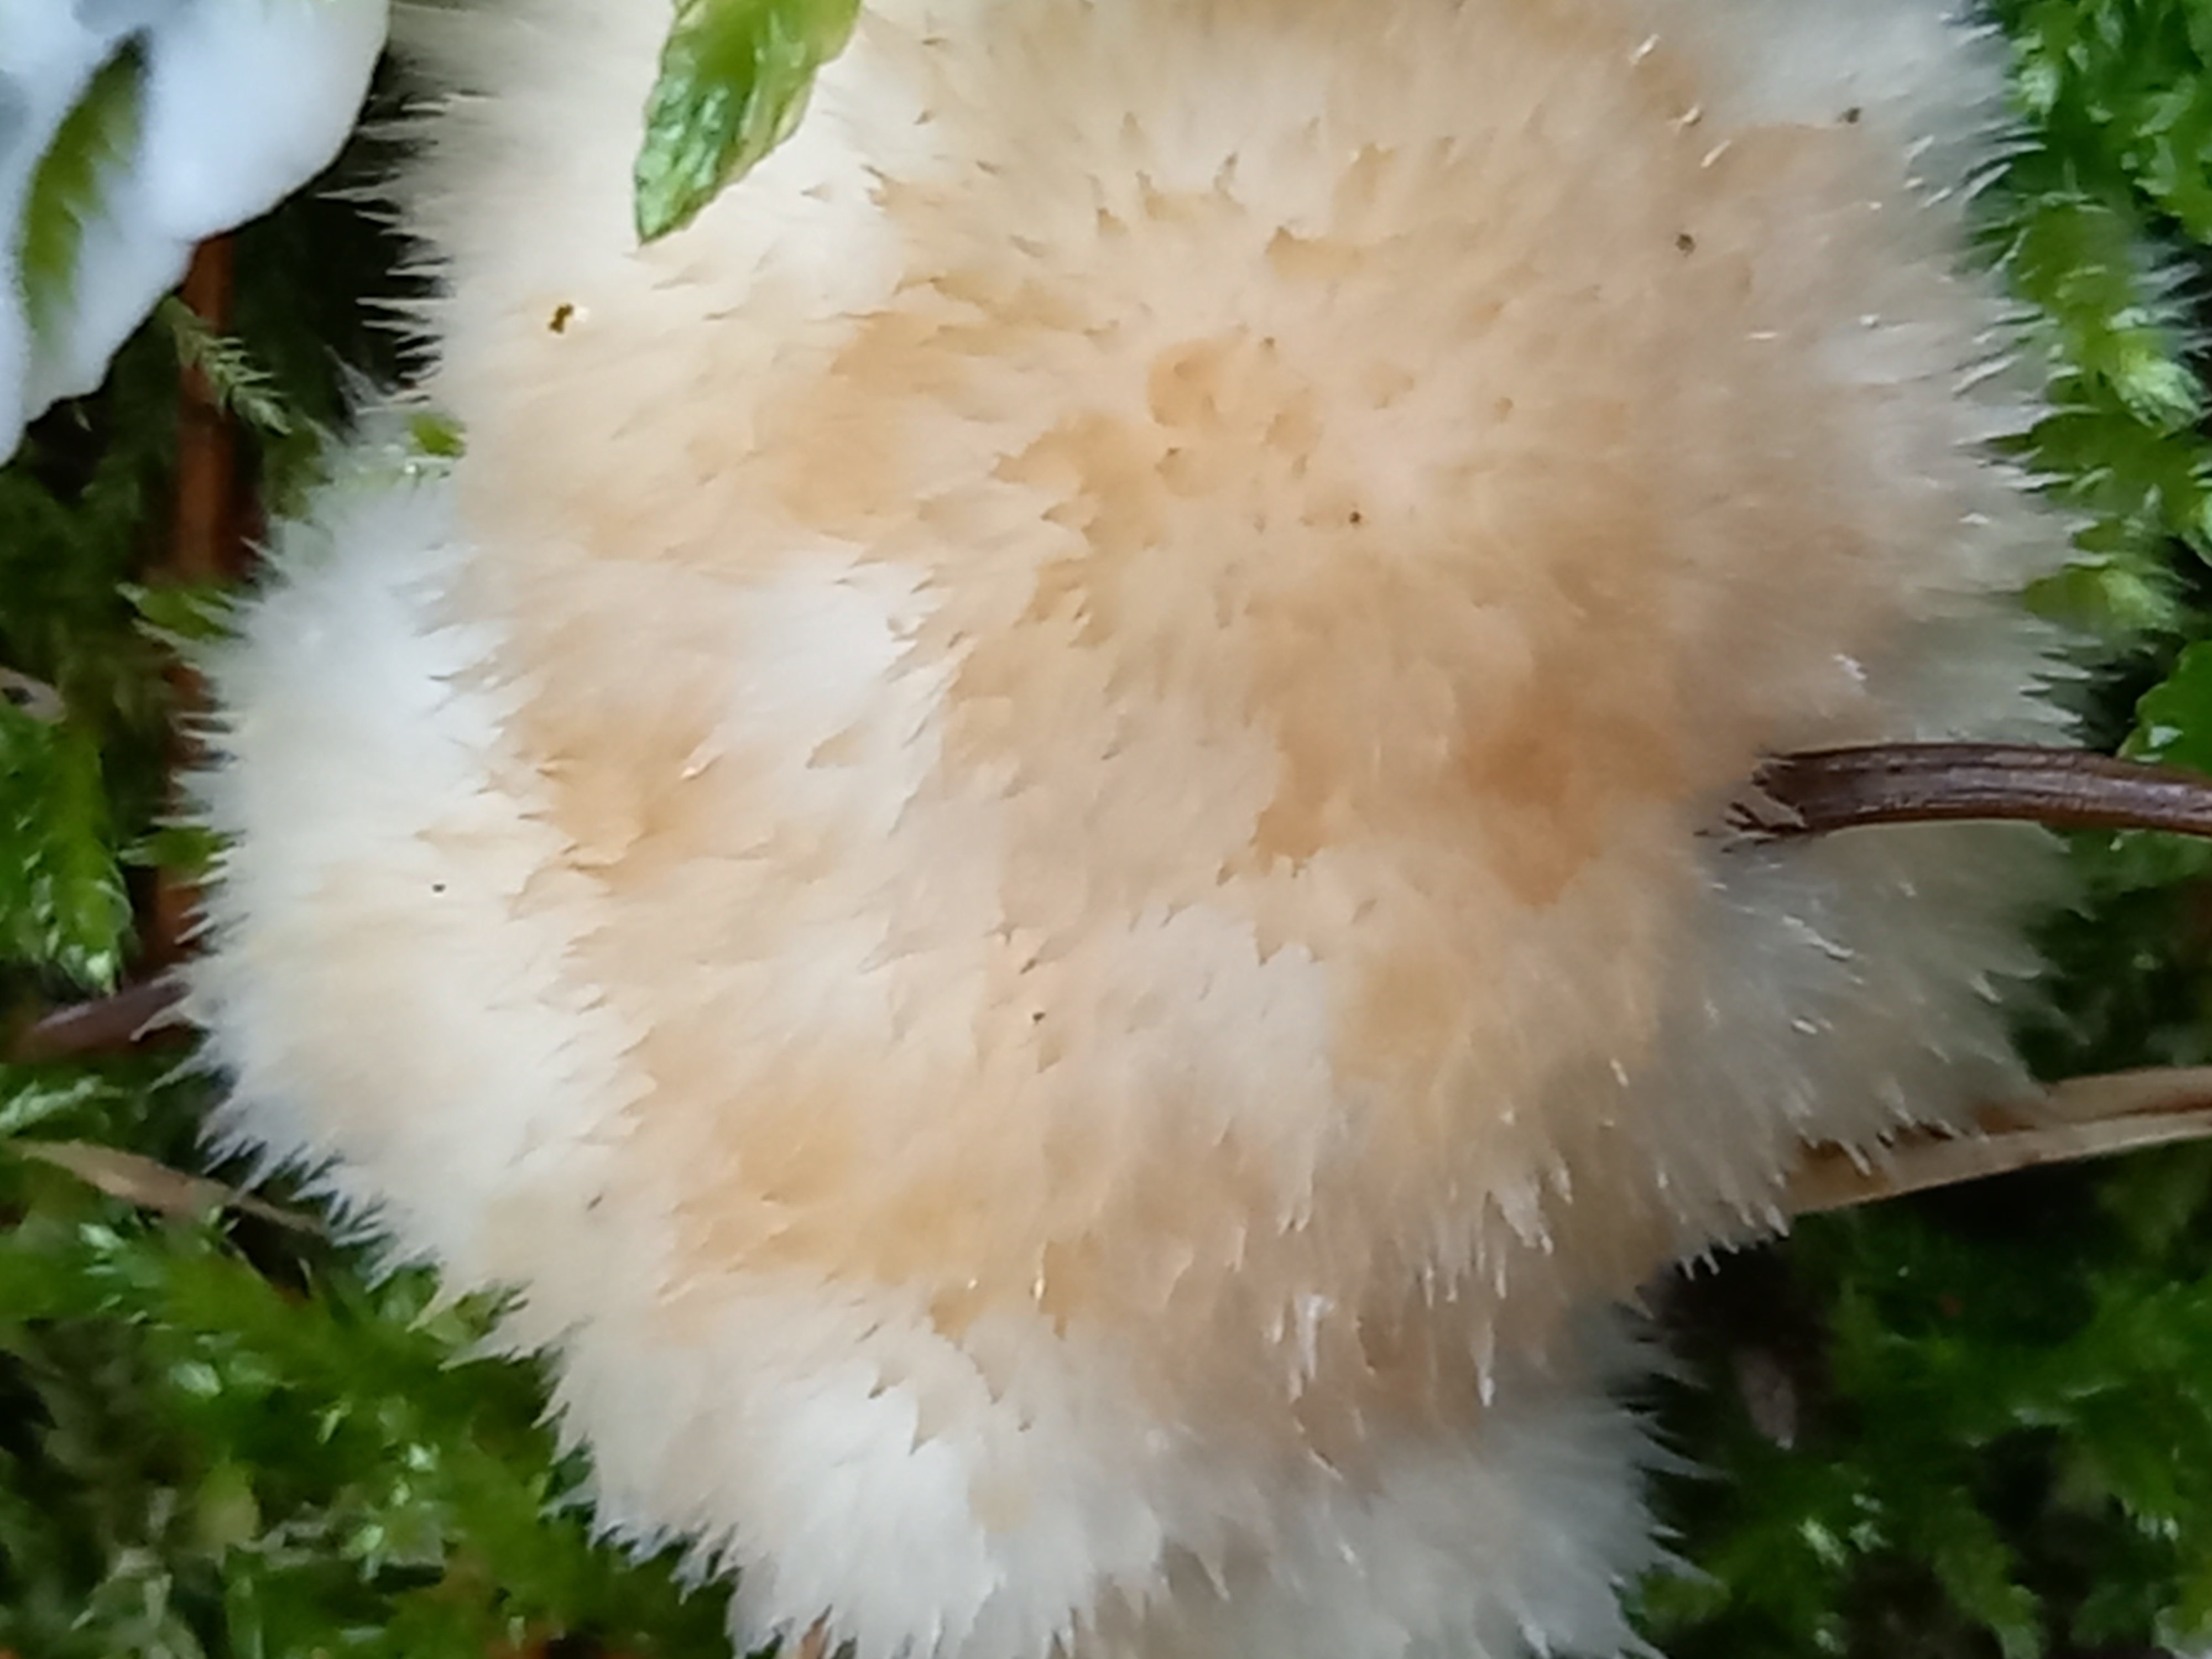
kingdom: Fungi
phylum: Basidiomycota
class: Agaricomycetes
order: Polyporales
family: Dacryobolaceae
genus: Postia
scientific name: Postia ptychogaster
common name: støvende kødporesvamp
